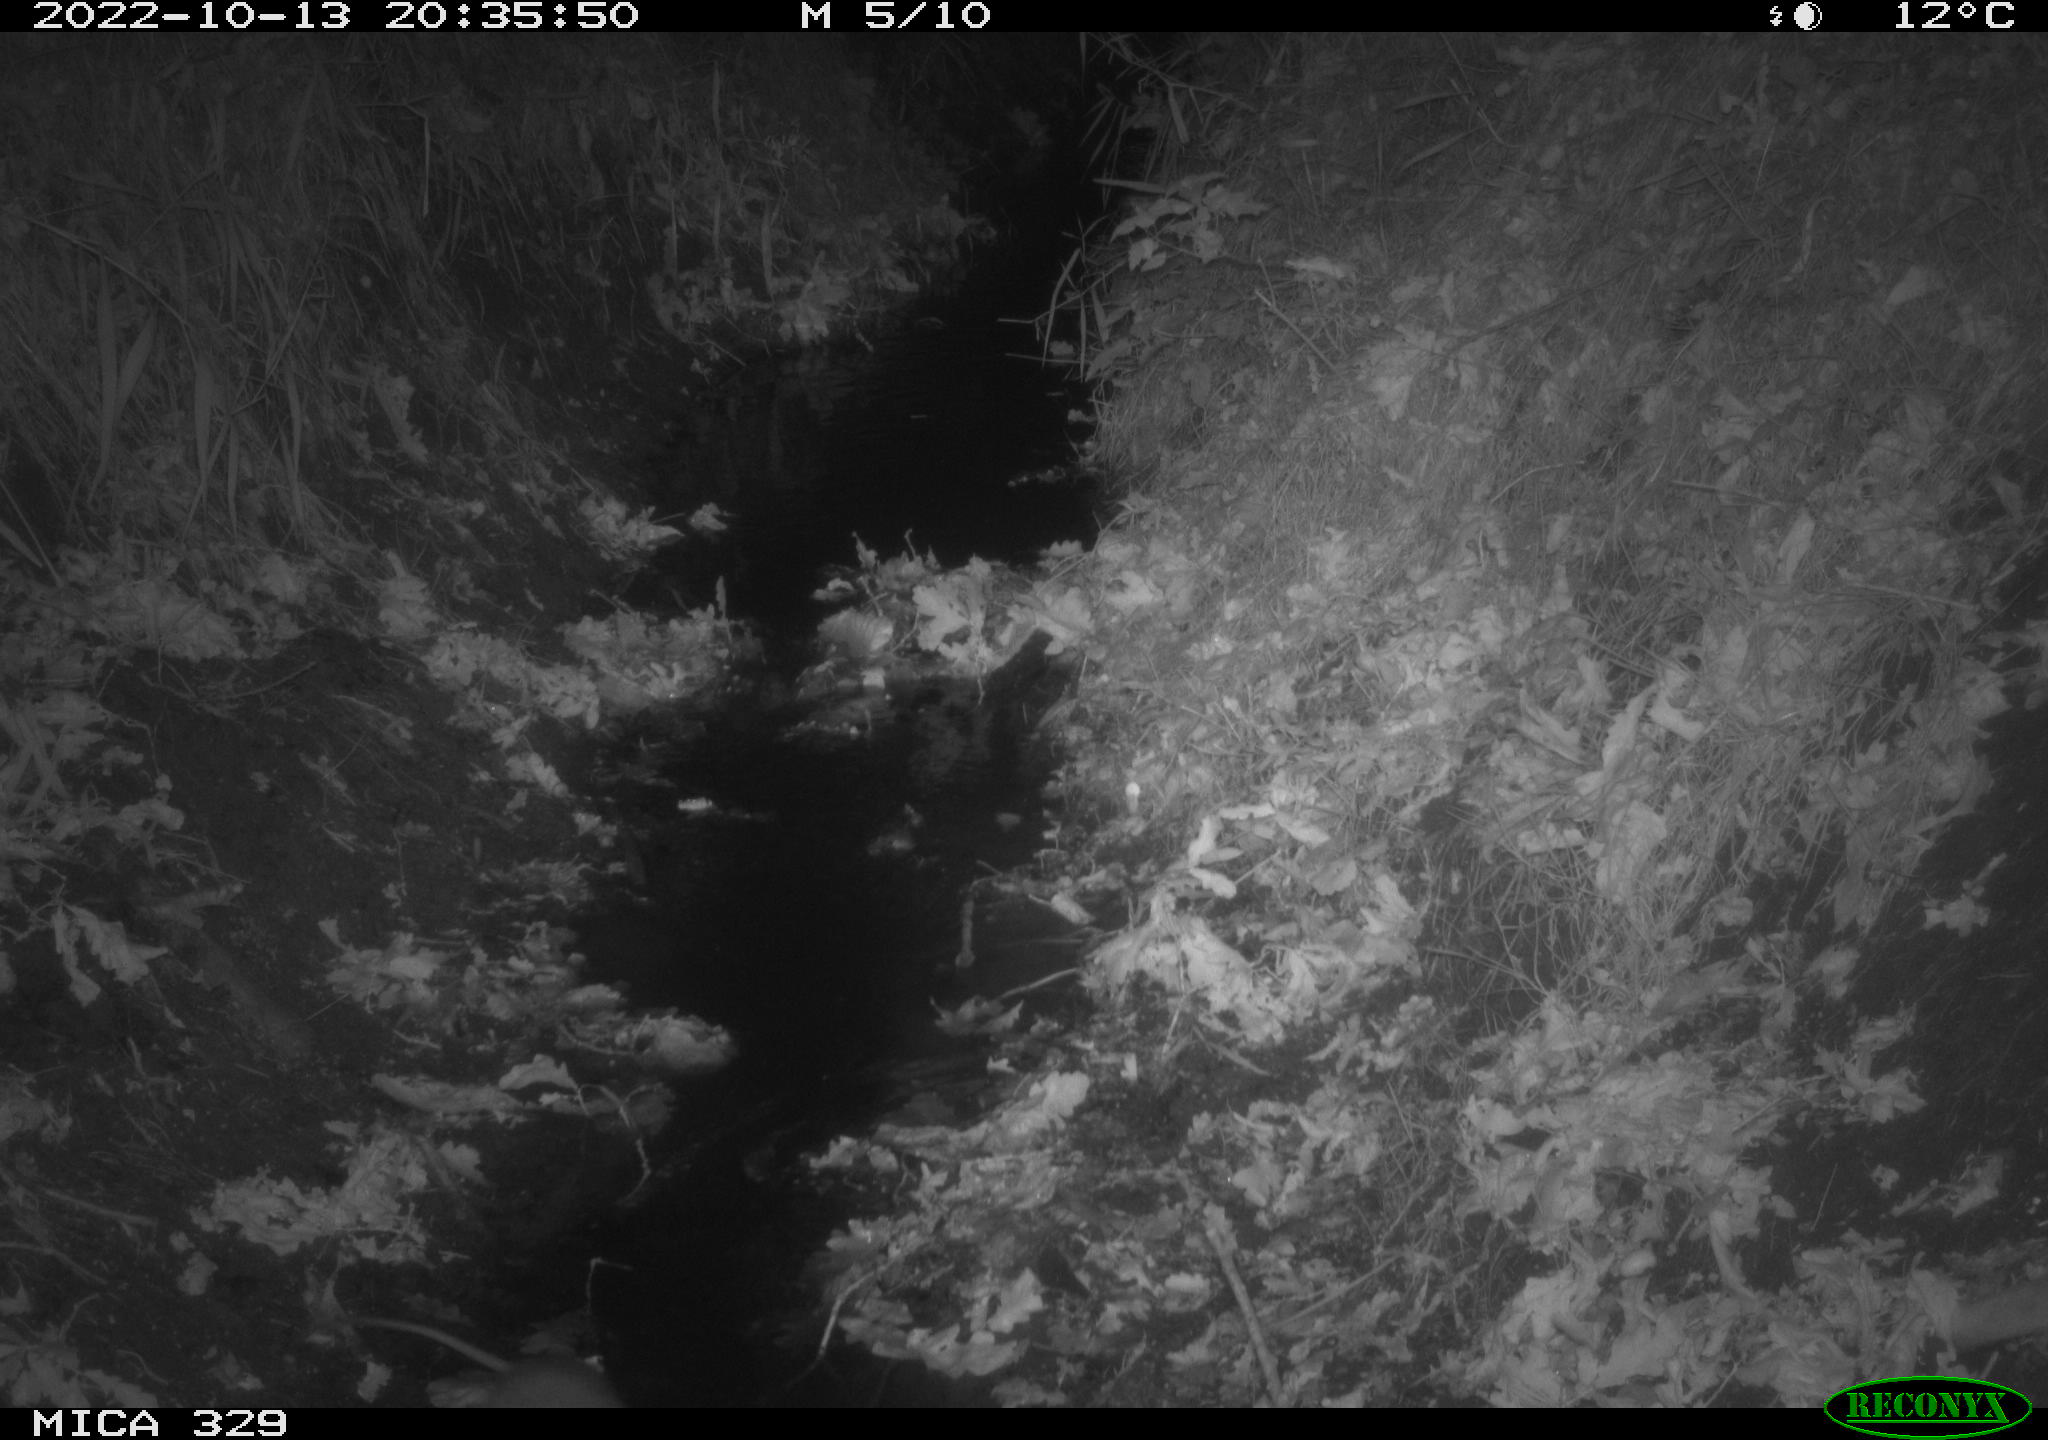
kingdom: Animalia
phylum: Chordata
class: Mammalia
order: Rodentia
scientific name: Rodentia
